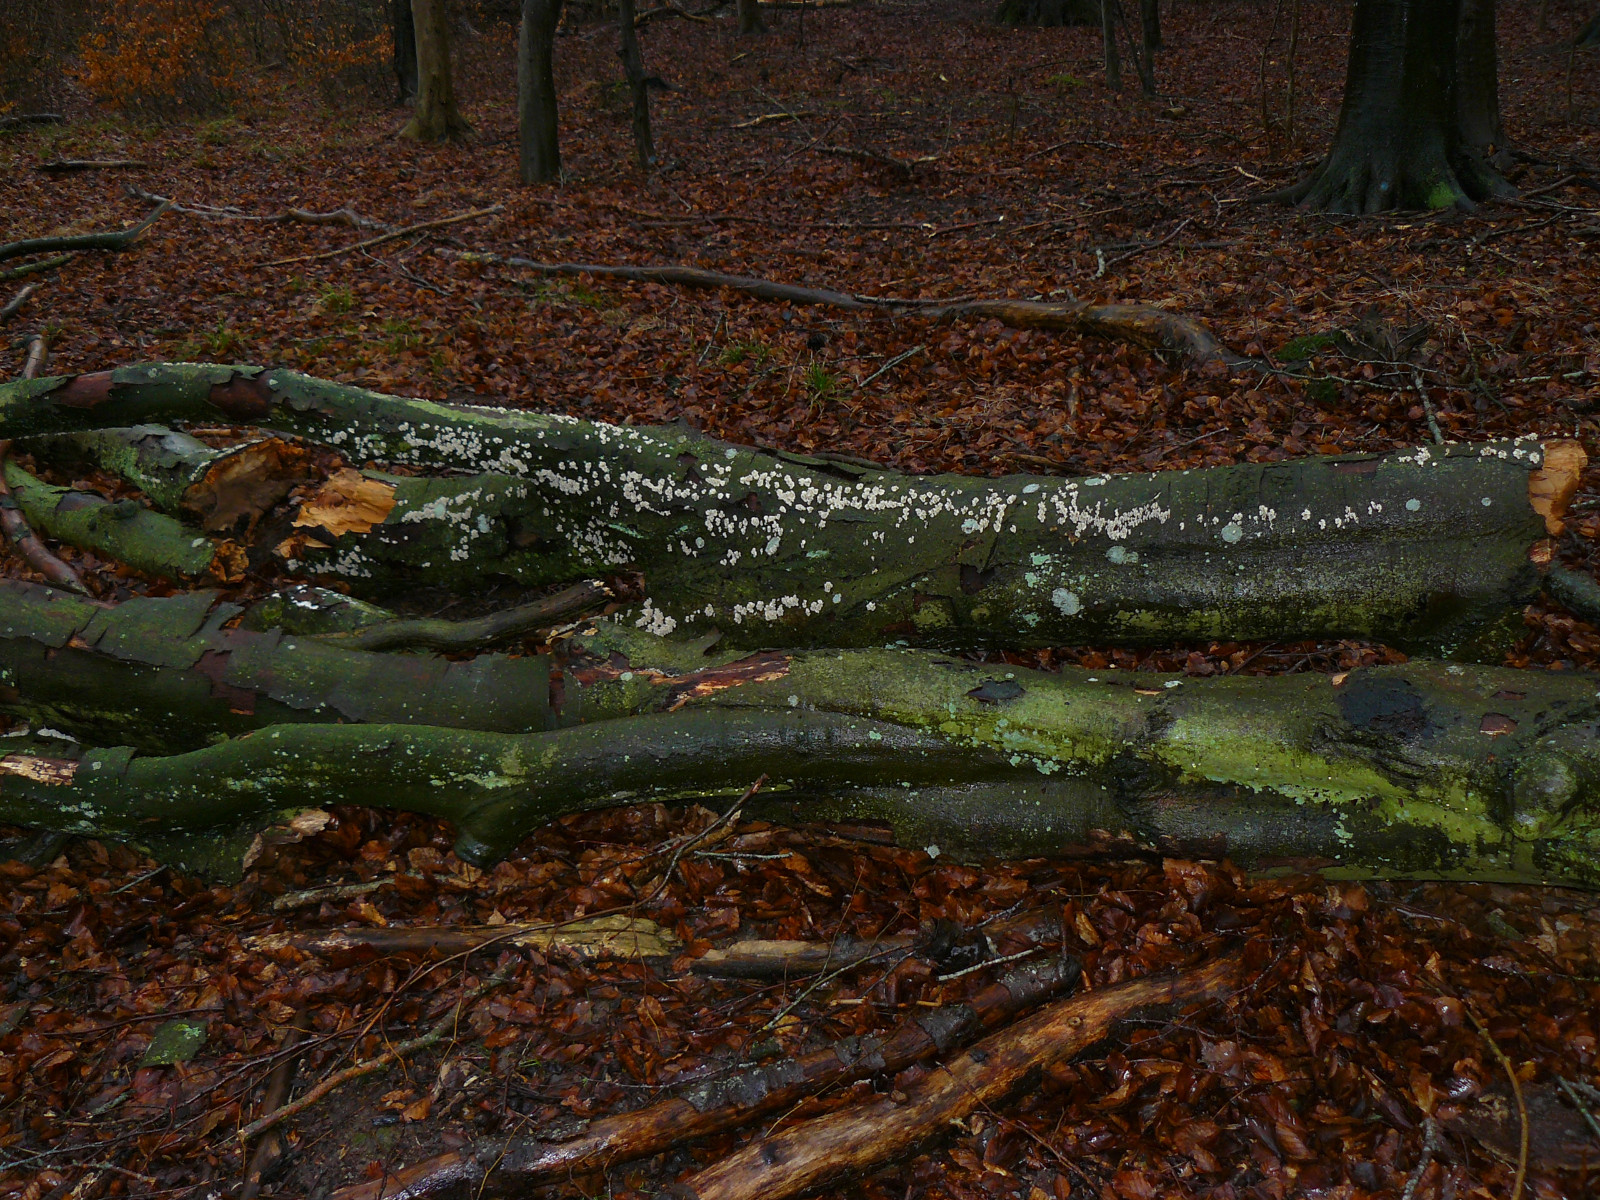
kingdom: Fungi
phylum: Basidiomycota
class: Agaricomycetes
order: Amylocorticiales
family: Amylocorticiaceae
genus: Plicaturopsis
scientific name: Plicaturopsis crispa
